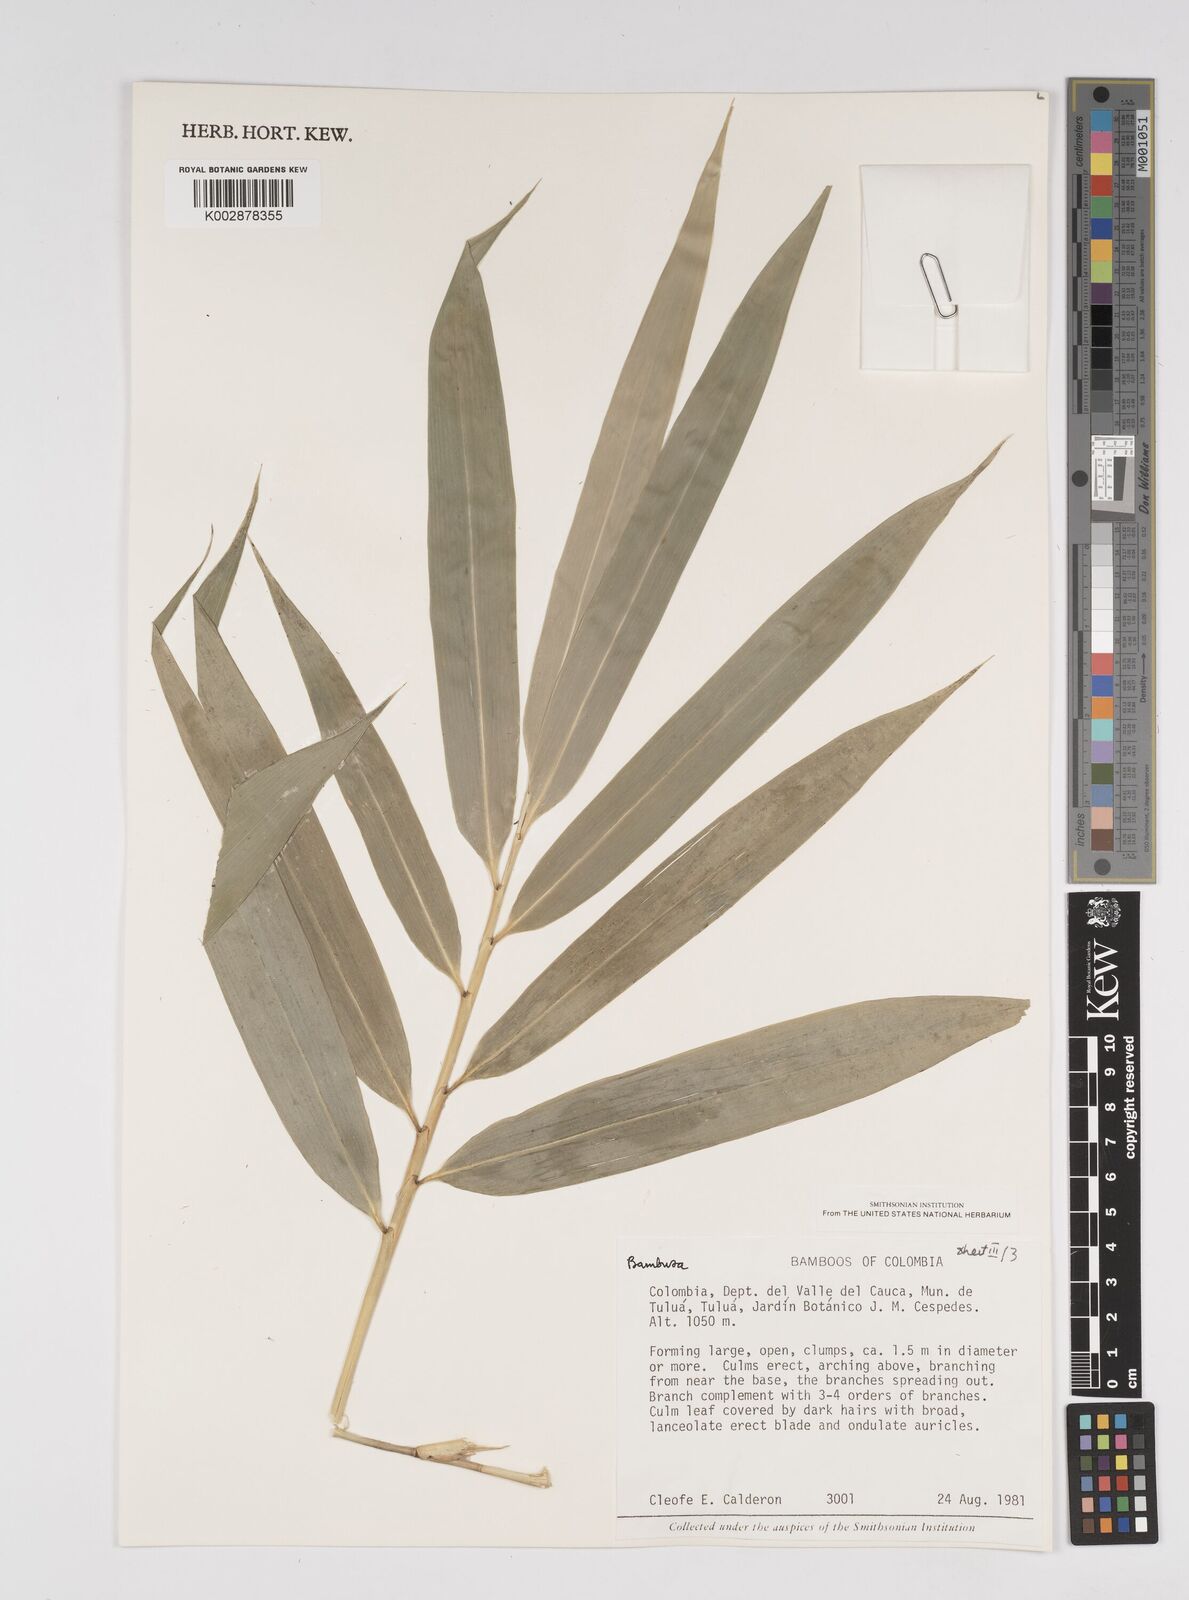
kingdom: Plantae
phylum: Tracheophyta
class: Liliopsida
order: Poales
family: Poaceae
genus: Bambusa
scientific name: Bambusa nutans
